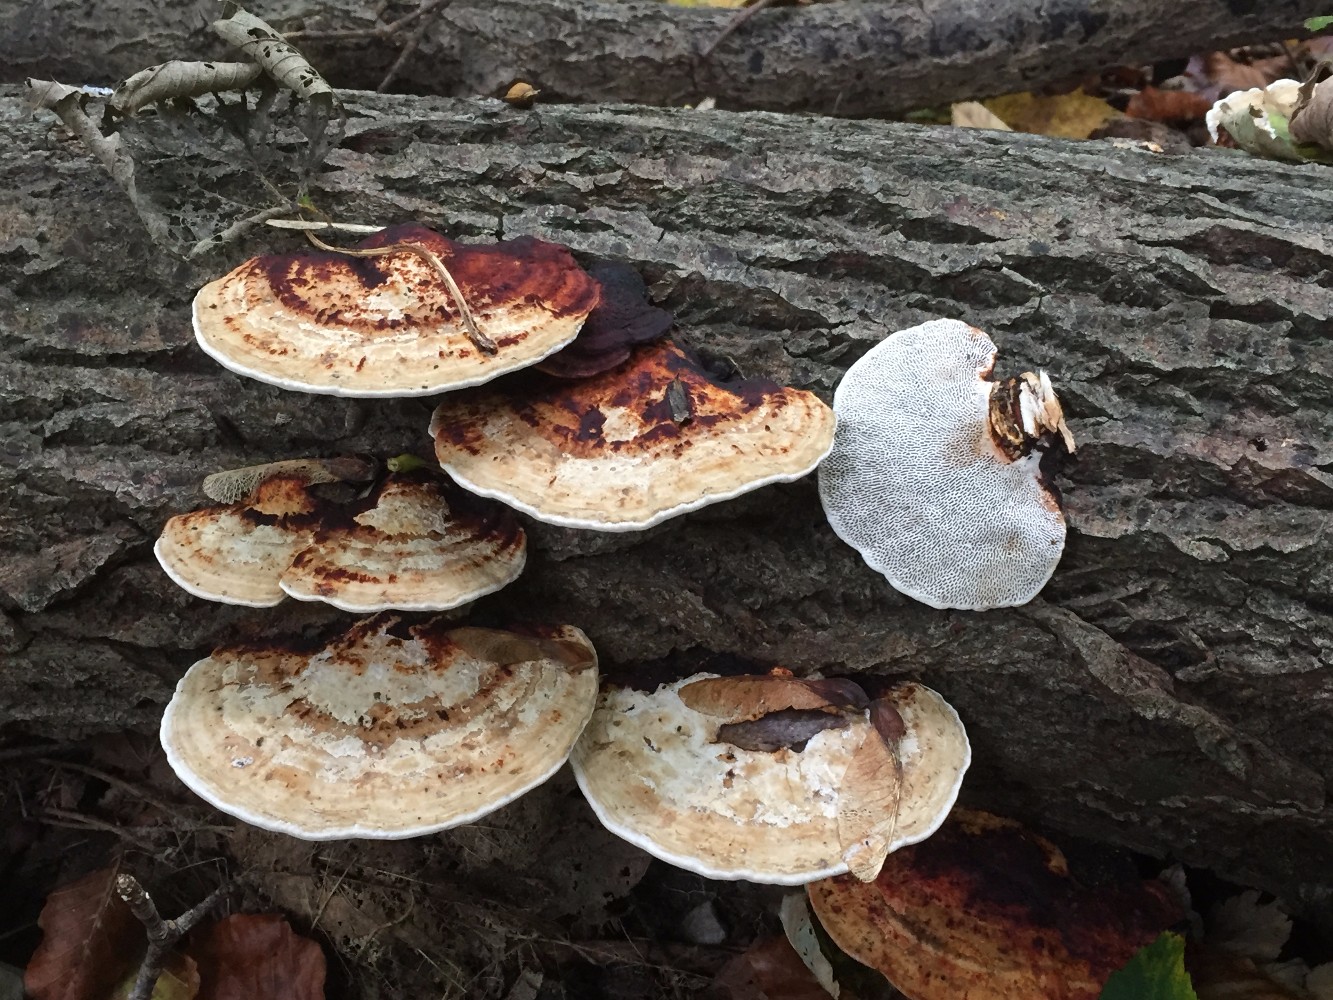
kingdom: Fungi
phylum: Basidiomycota
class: Agaricomycetes
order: Polyporales
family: Polyporaceae
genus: Daedaleopsis
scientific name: Daedaleopsis confragosa
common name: rødmende læderporesvamp
